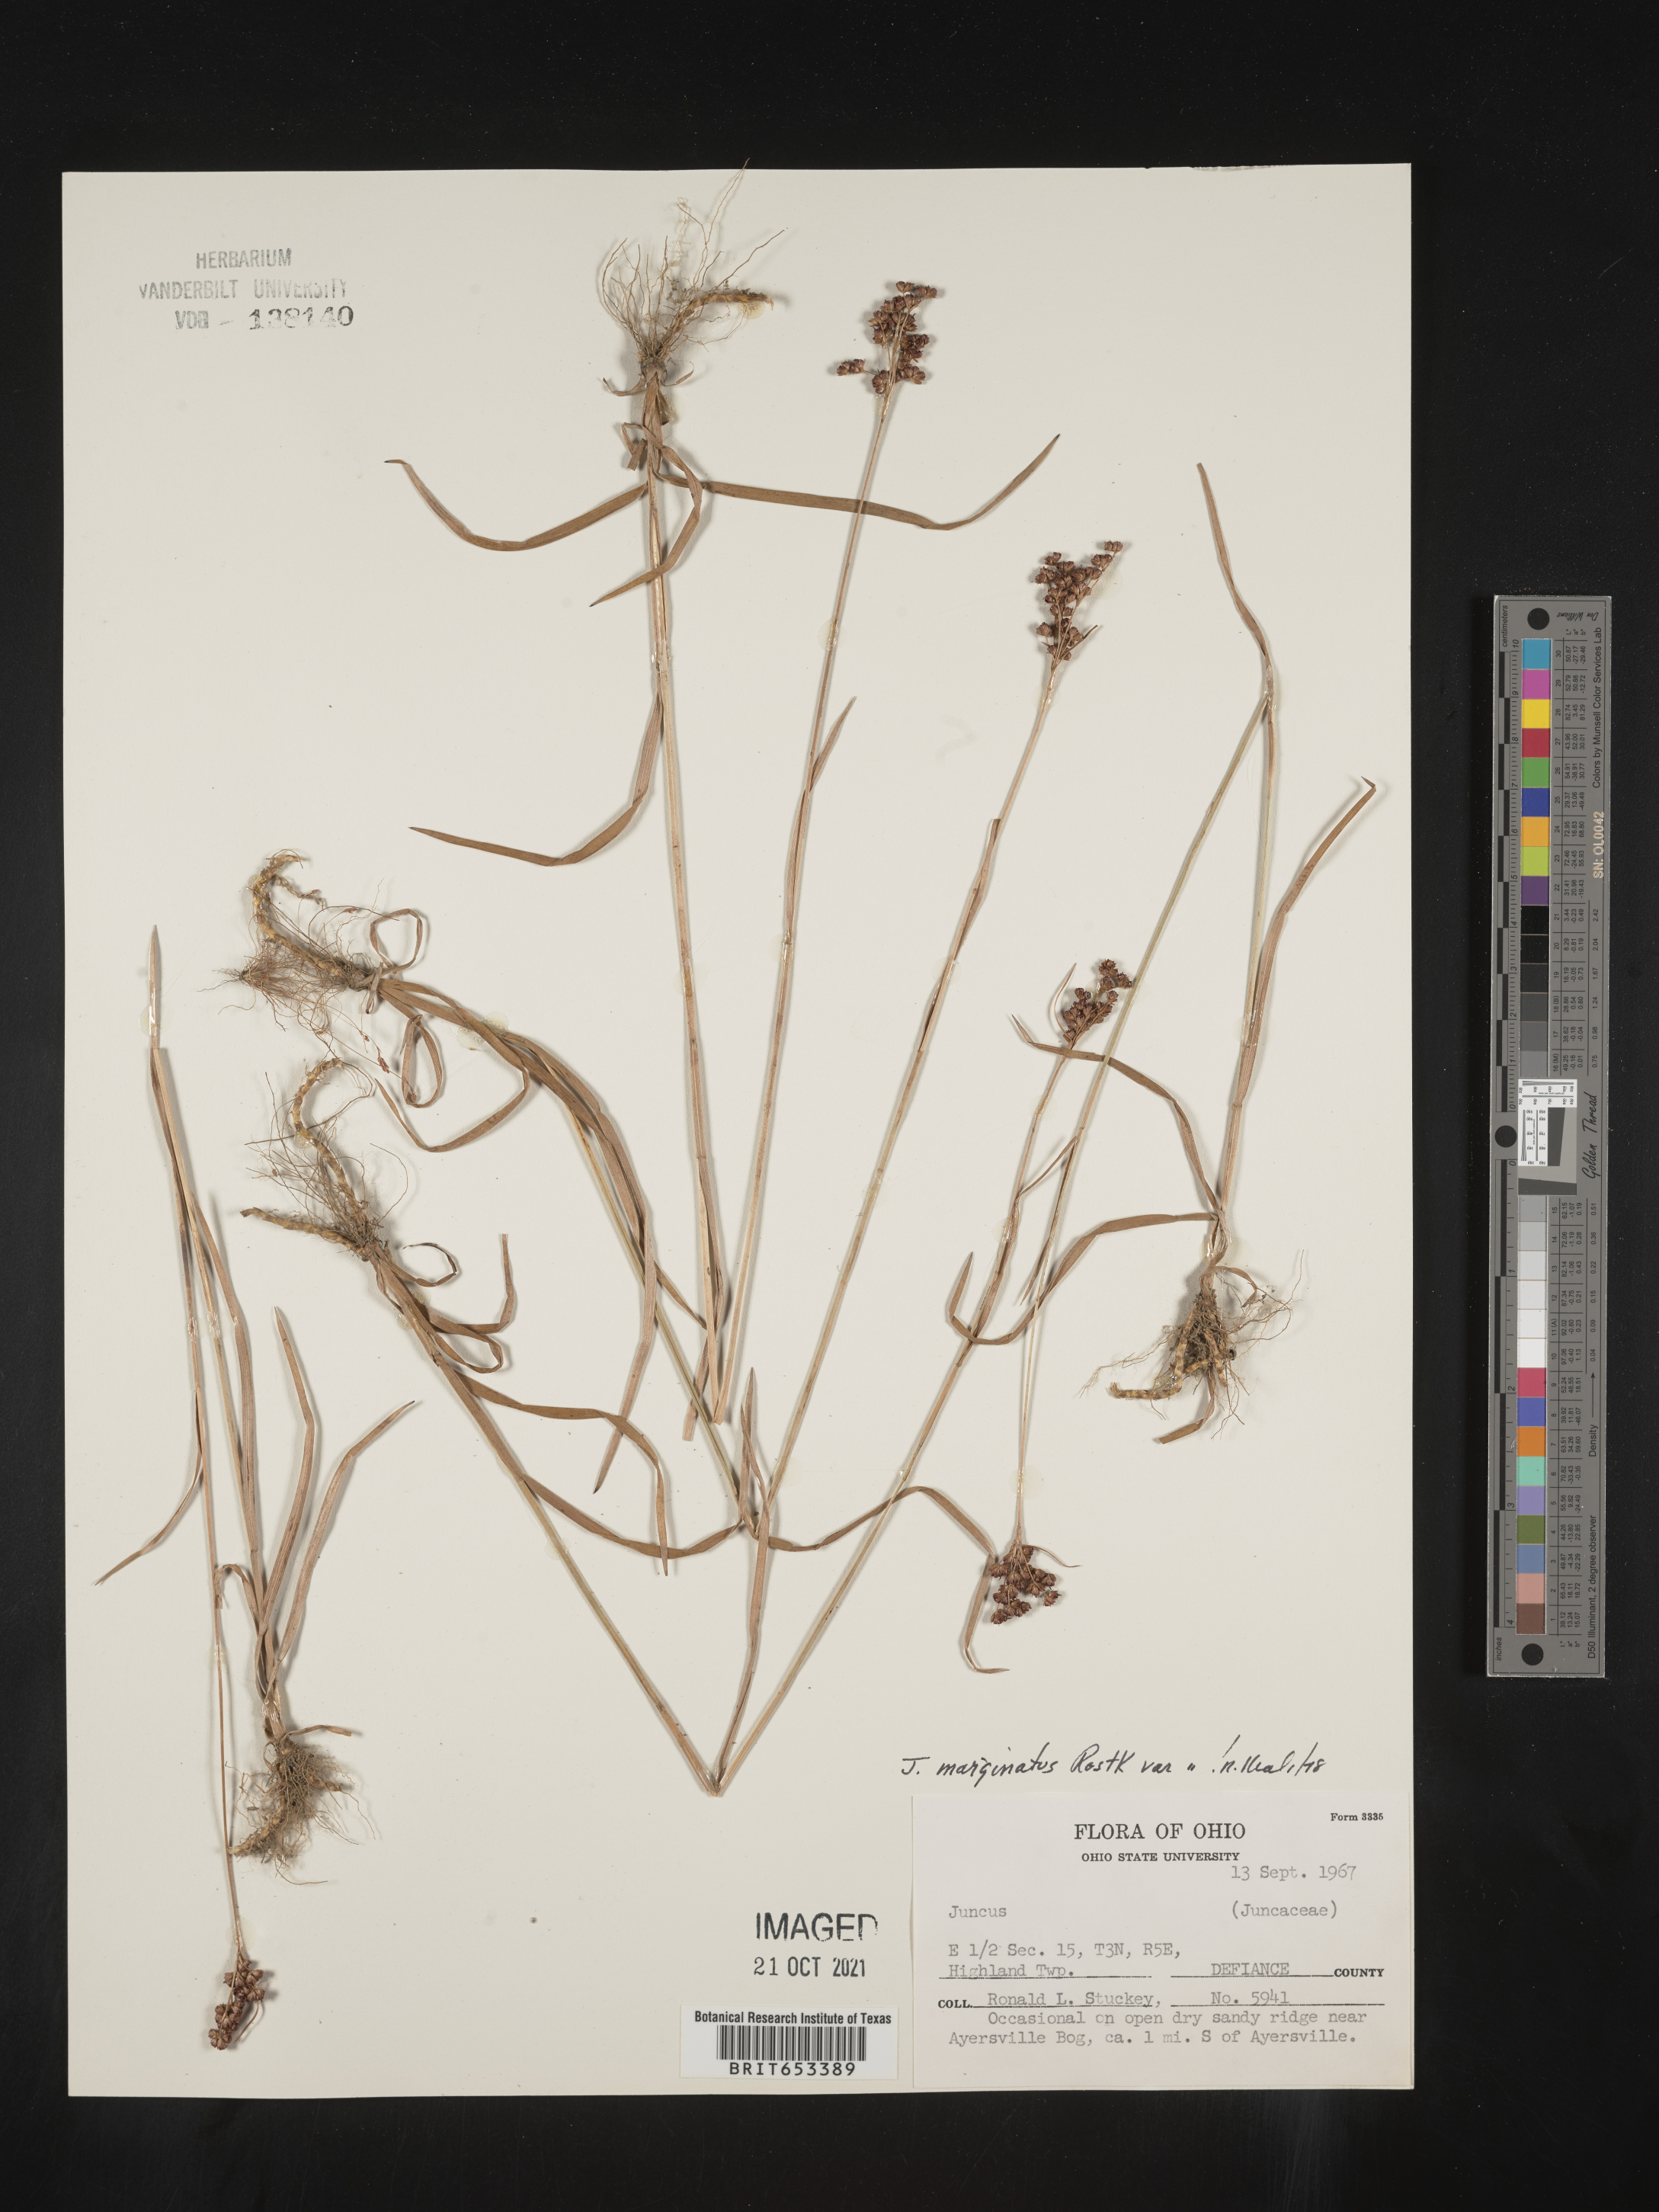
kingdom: Plantae
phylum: Tracheophyta
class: Liliopsida
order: Poales
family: Juncaceae
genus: Juncus
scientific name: Juncus marginatus
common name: Grass-leaf rush
